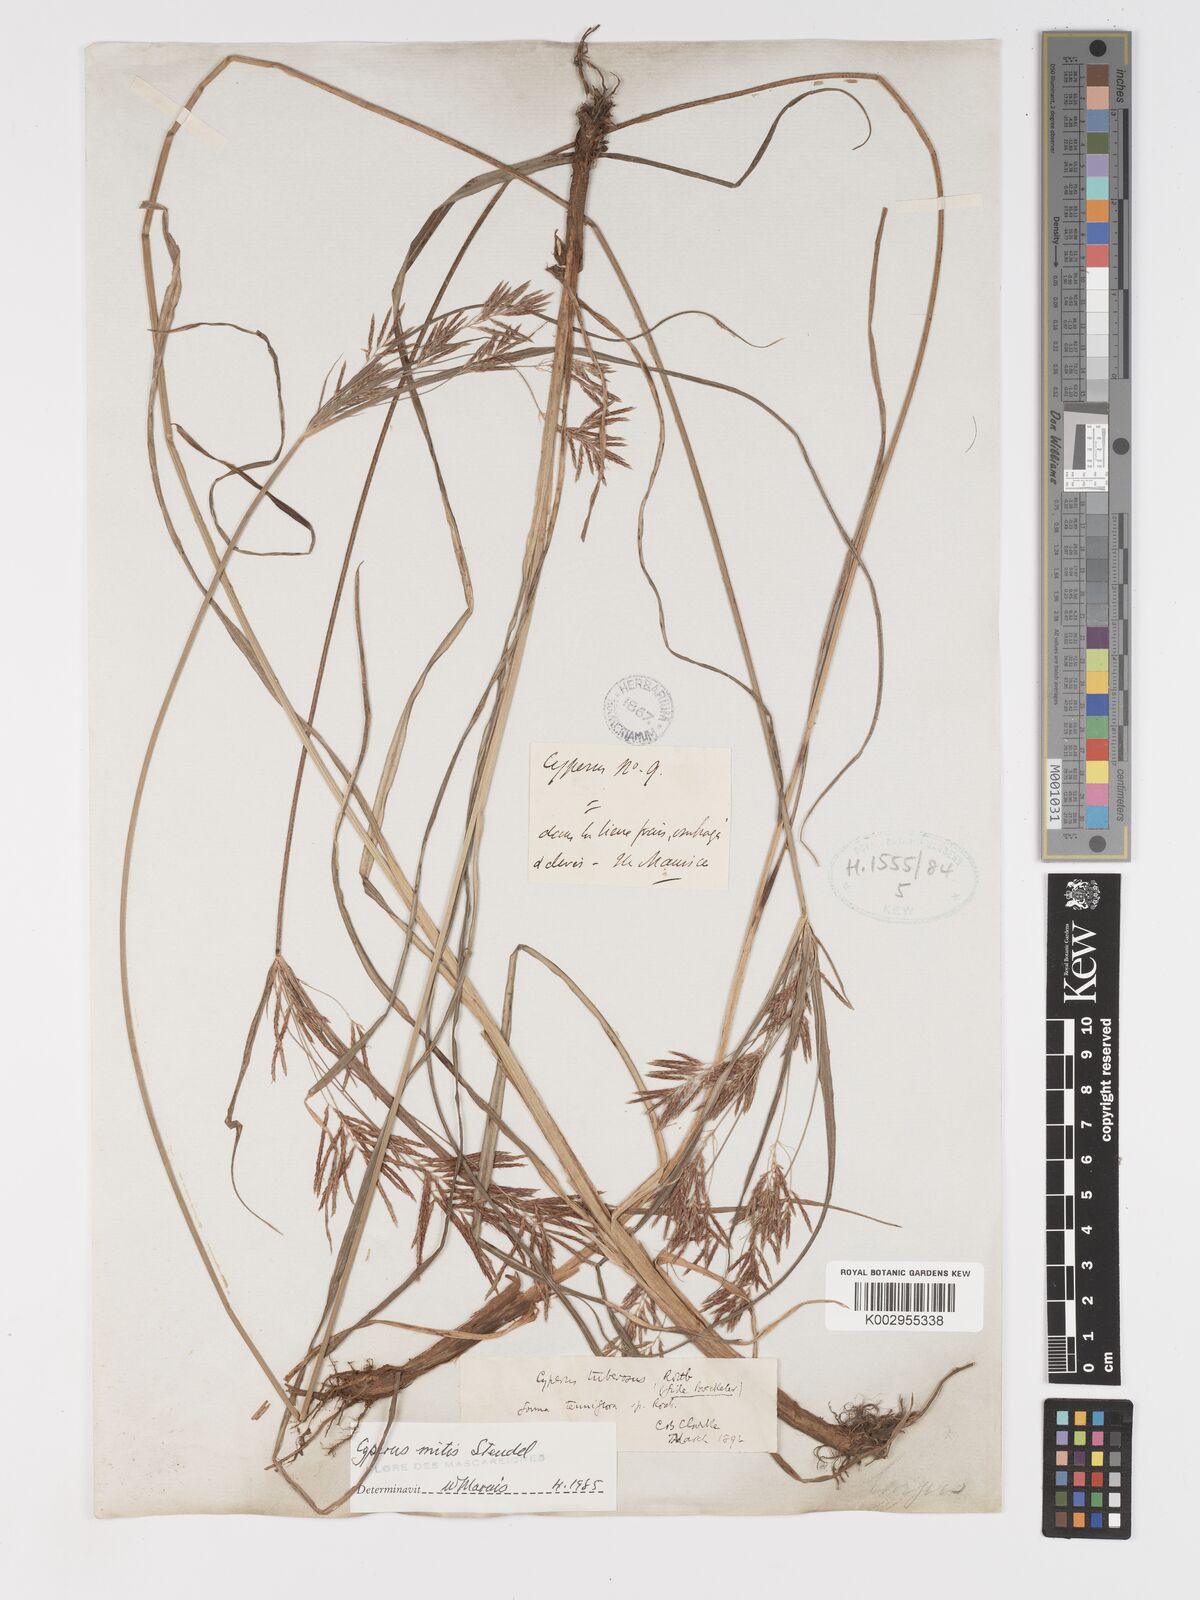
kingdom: Plantae
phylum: Tracheophyta
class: Liliopsida
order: Poales
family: Cyperaceae
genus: Cyperus
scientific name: Cyperus mitis
